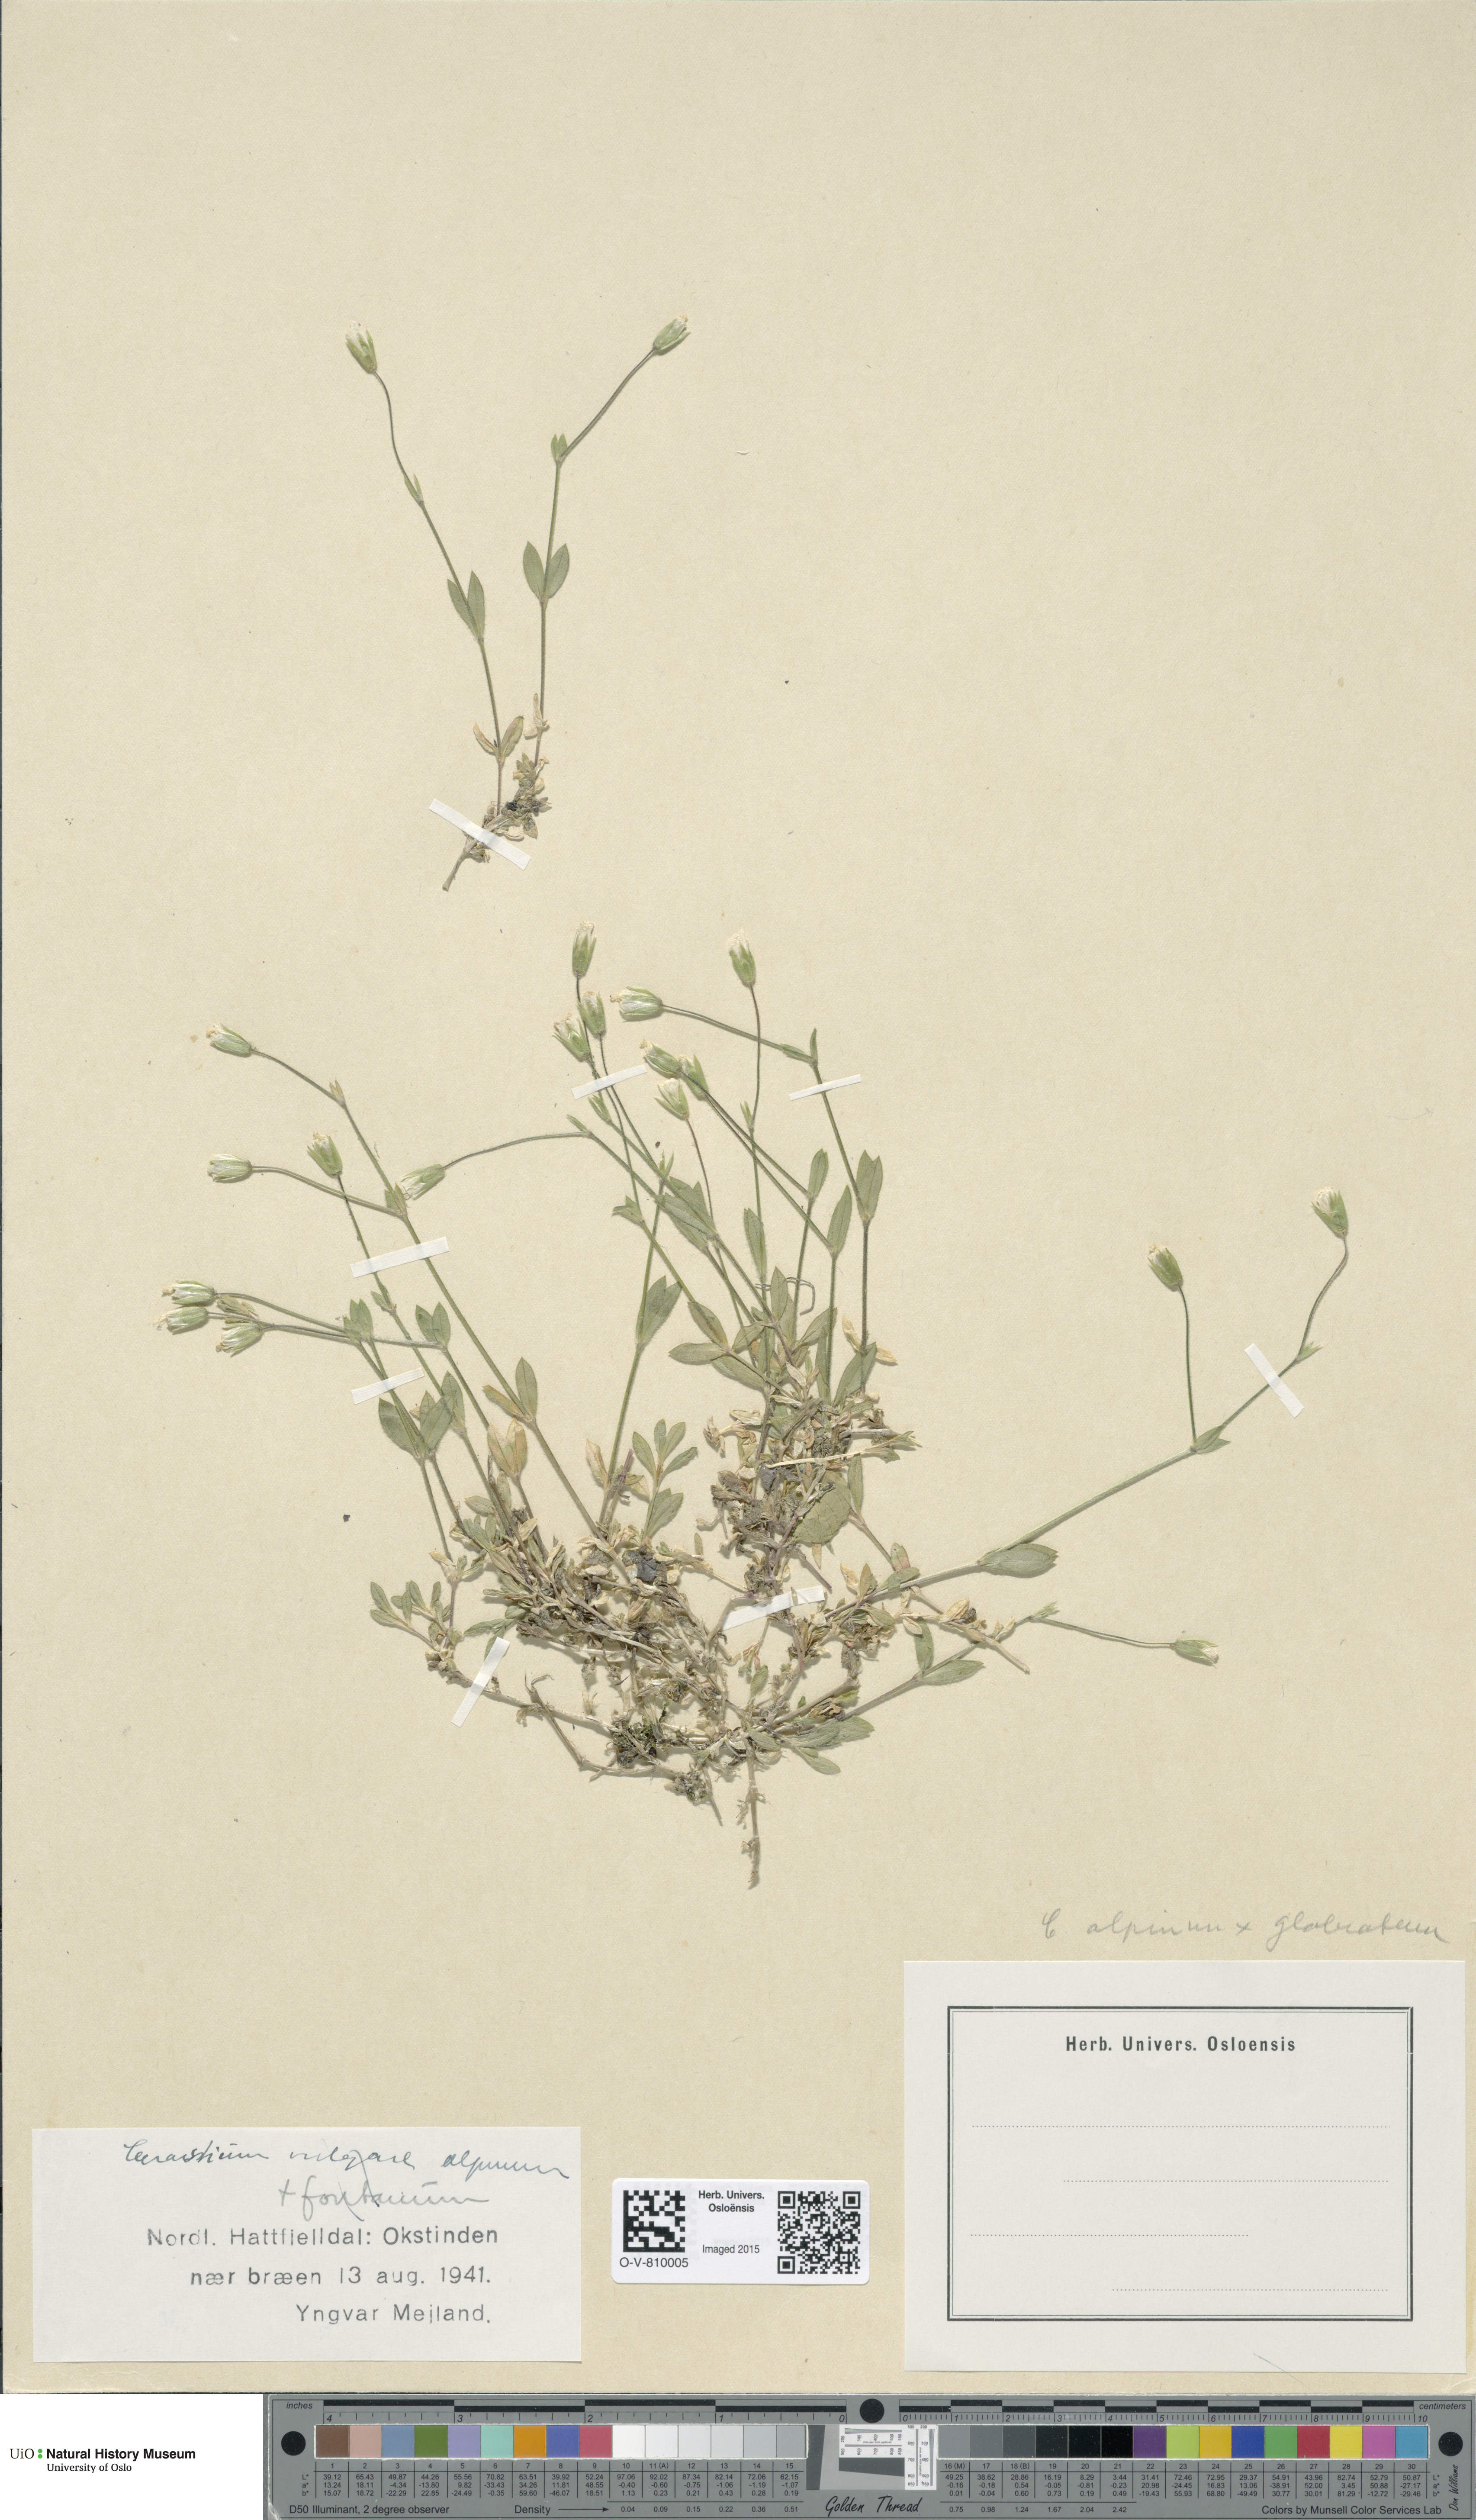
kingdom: Plantae
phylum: Tracheophyta
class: Magnoliopsida
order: Caryophyllales
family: Caryophyllaceae
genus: Cerastium
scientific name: Cerastium
